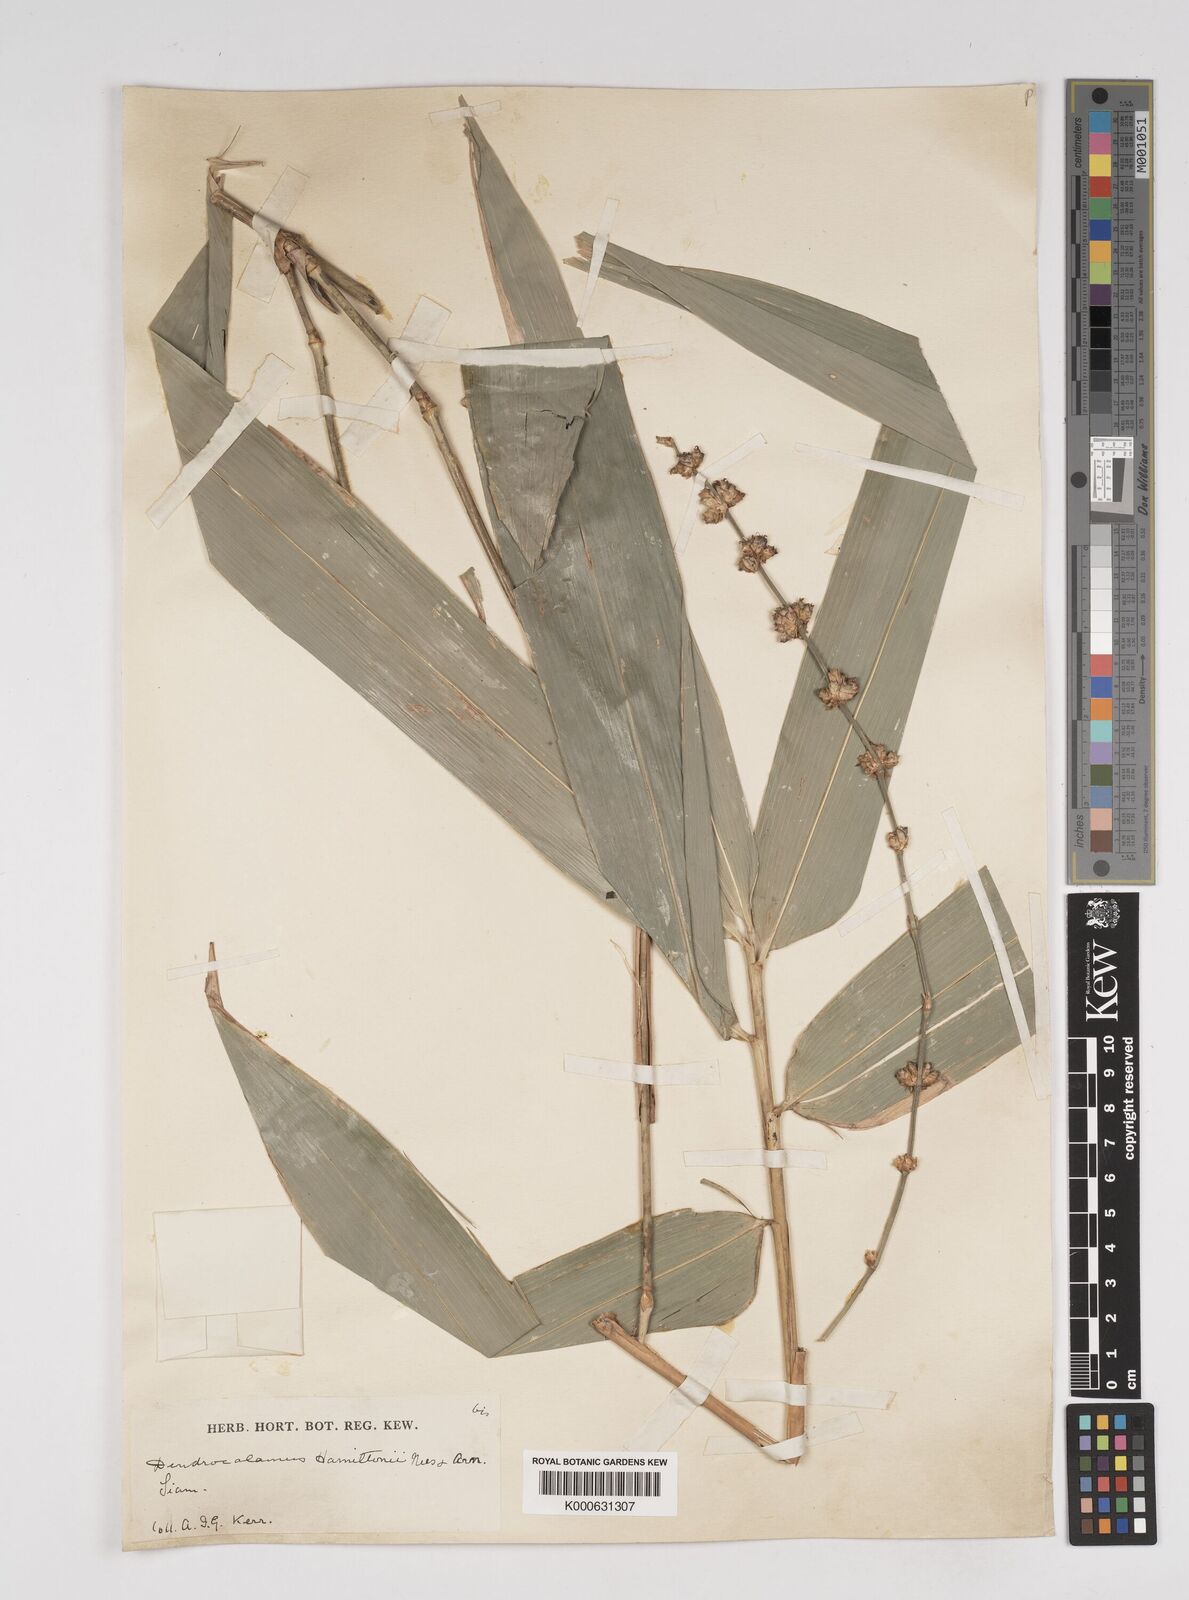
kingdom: Plantae
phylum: Tracheophyta
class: Liliopsida
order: Poales
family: Poaceae
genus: Dendrocalamus
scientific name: Dendrocalamus brandisii
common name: Velvetleaf bamboo
